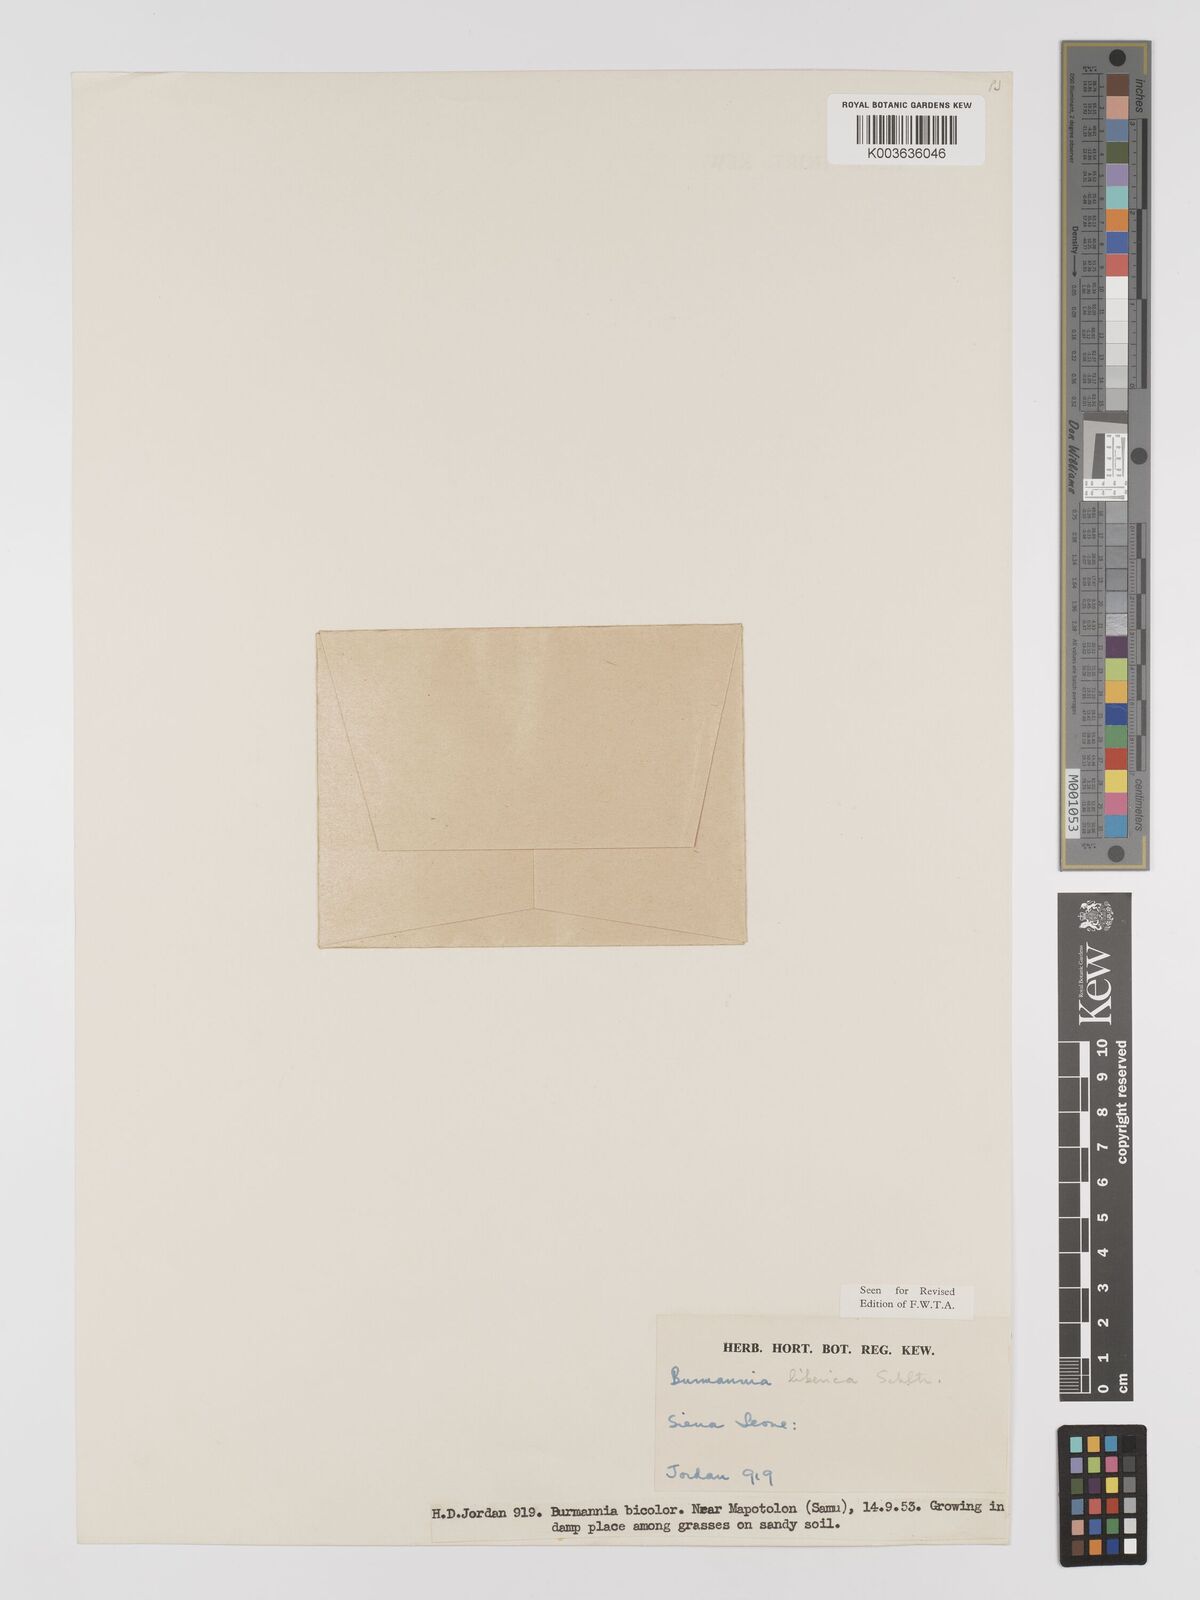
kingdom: Plantae
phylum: Tracheophyta
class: Liliopsida
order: Dioscoreales
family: Burmanniaceae
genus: Burmannia
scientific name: Burmannia madagascariensis
